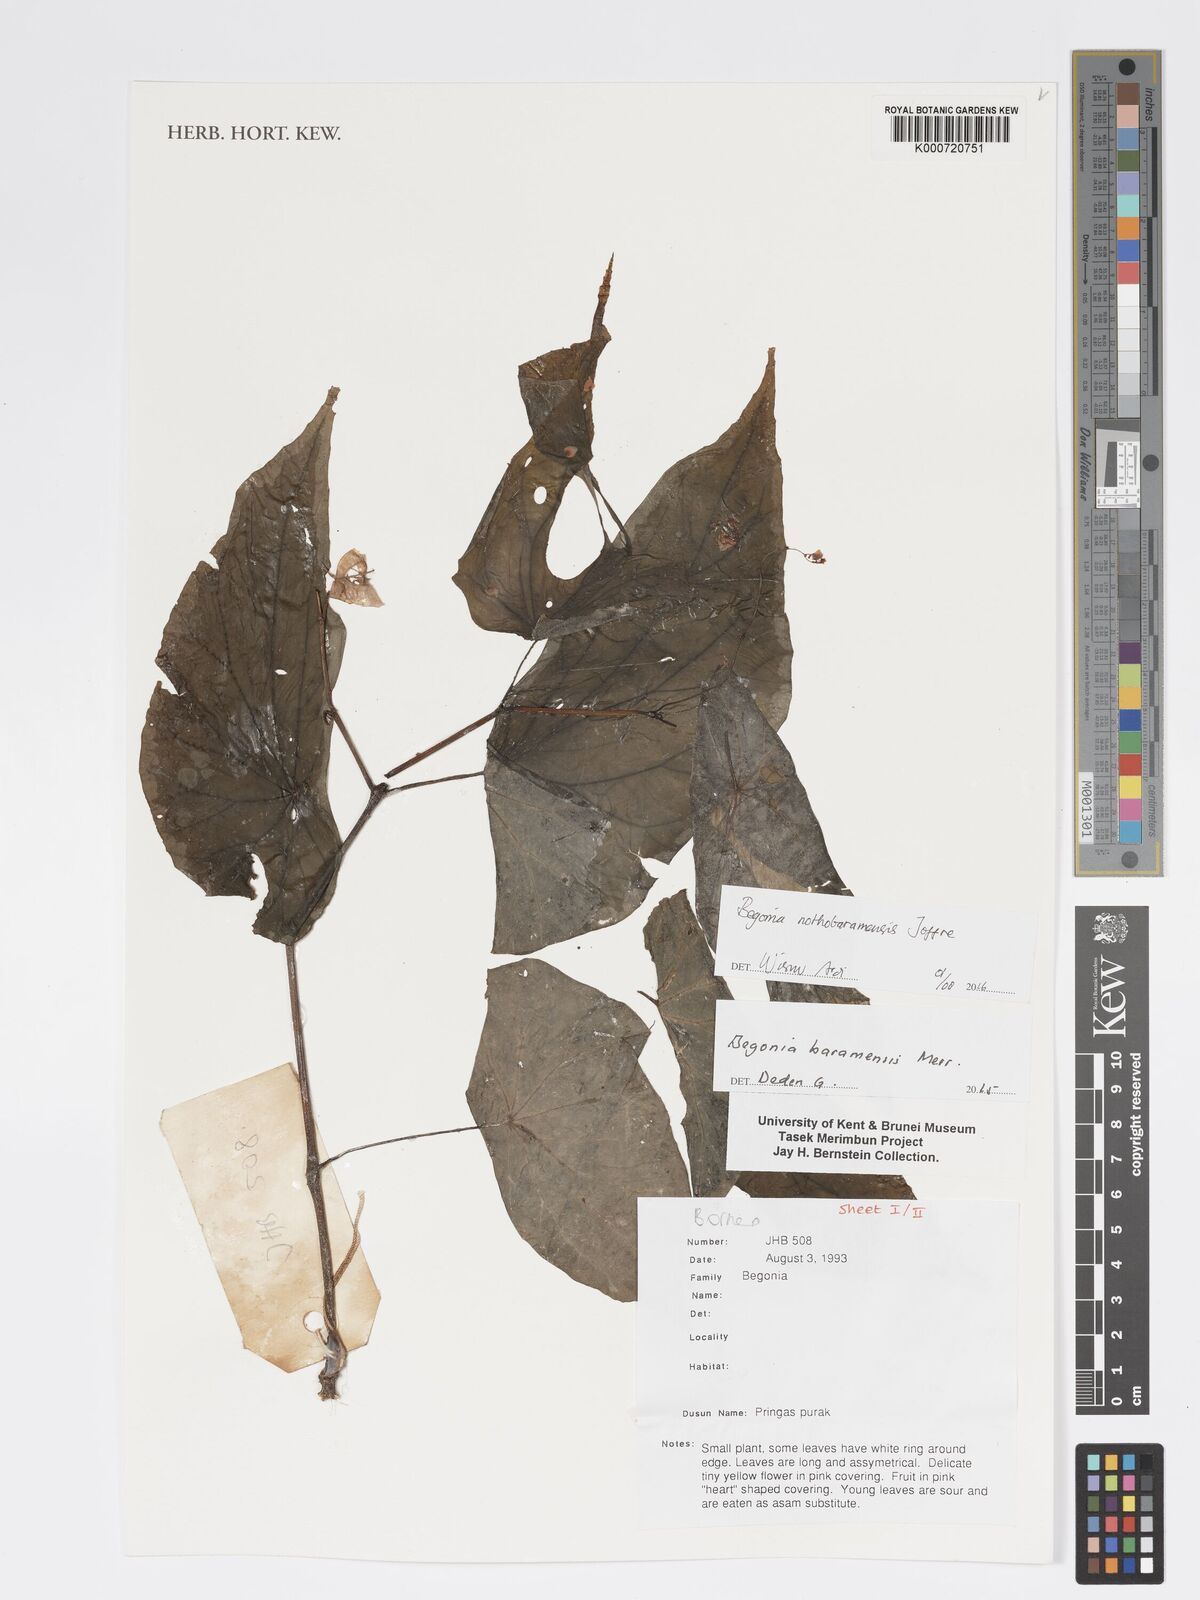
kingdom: Plantae
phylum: Tracheophyta
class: Magnoliopsida
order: Cucurbitales
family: Begoniaceae
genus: Begonia
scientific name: Begonia nothobaramensis
